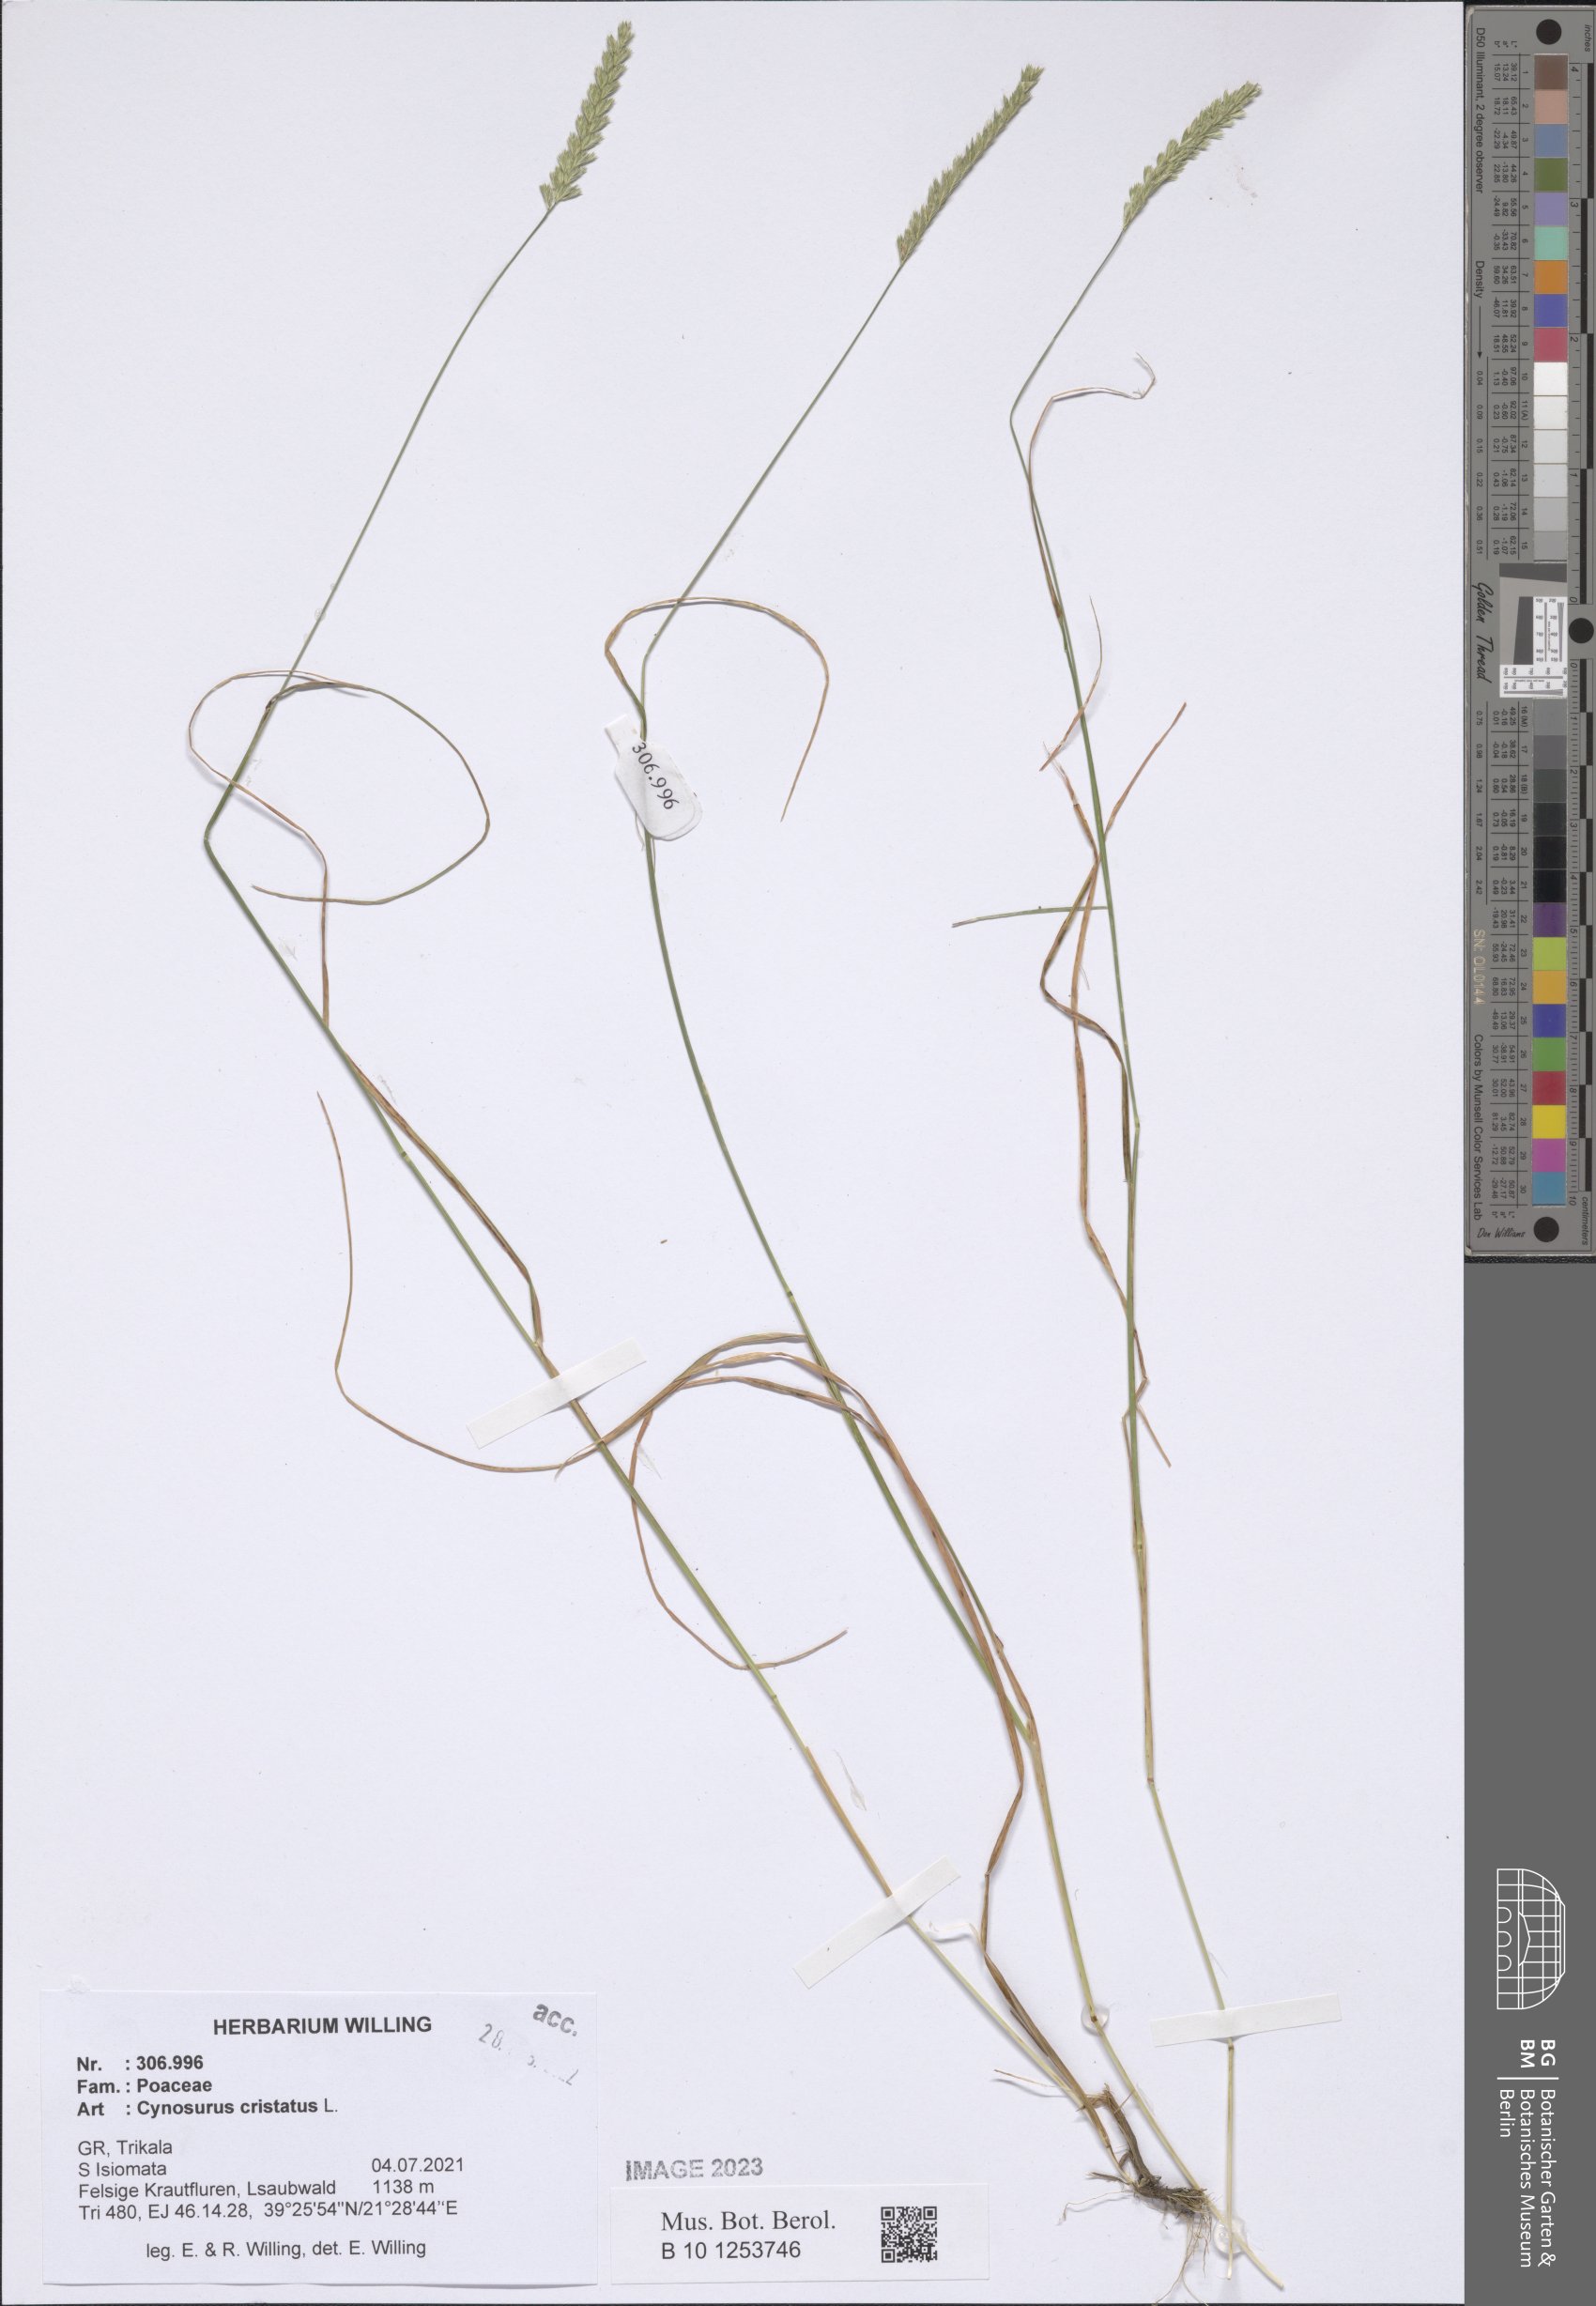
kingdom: Plantae
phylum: Tracheophyta
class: Liliopsida
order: Poales
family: Poaceae
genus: Cynosurus
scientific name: Cynosurus cristatus
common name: Crested dog's-tail
